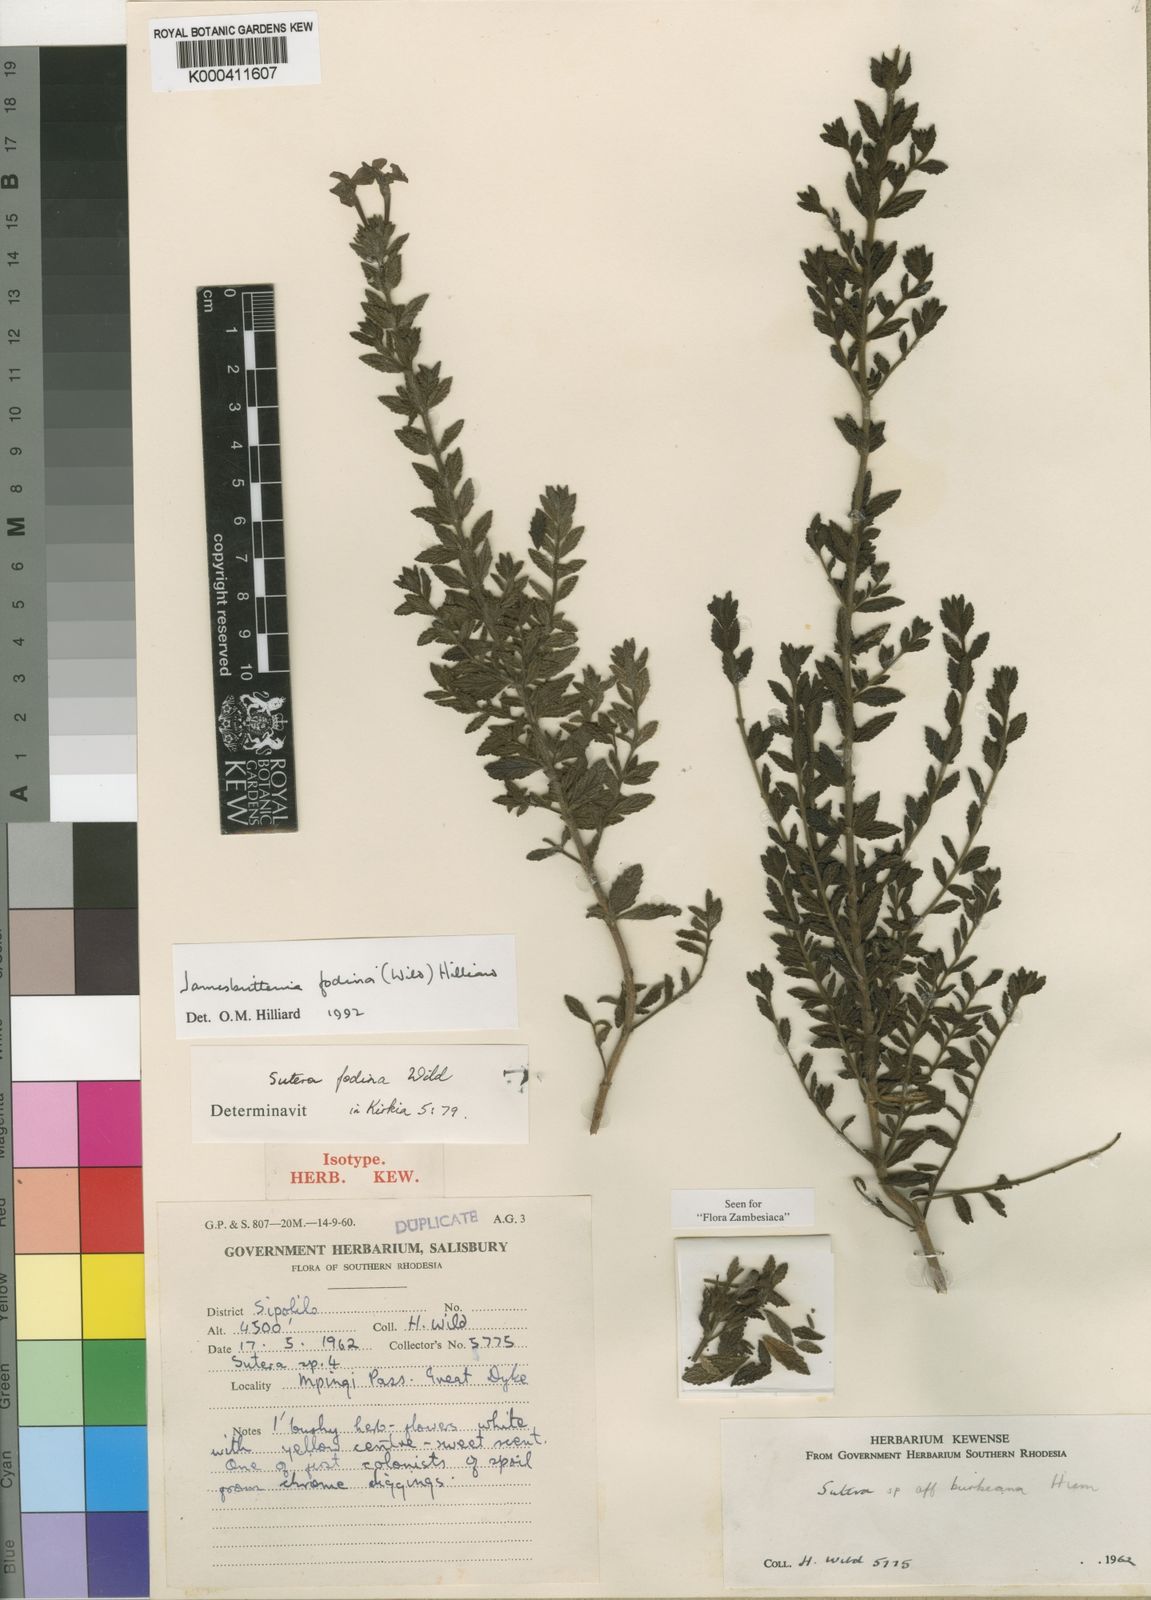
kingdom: Plantae
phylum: Tracheophyta
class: Magnoliopsida
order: Lamiales
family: Scrophulariaceae
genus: Jamesbrittenia
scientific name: Jamesbrittenia fodina
